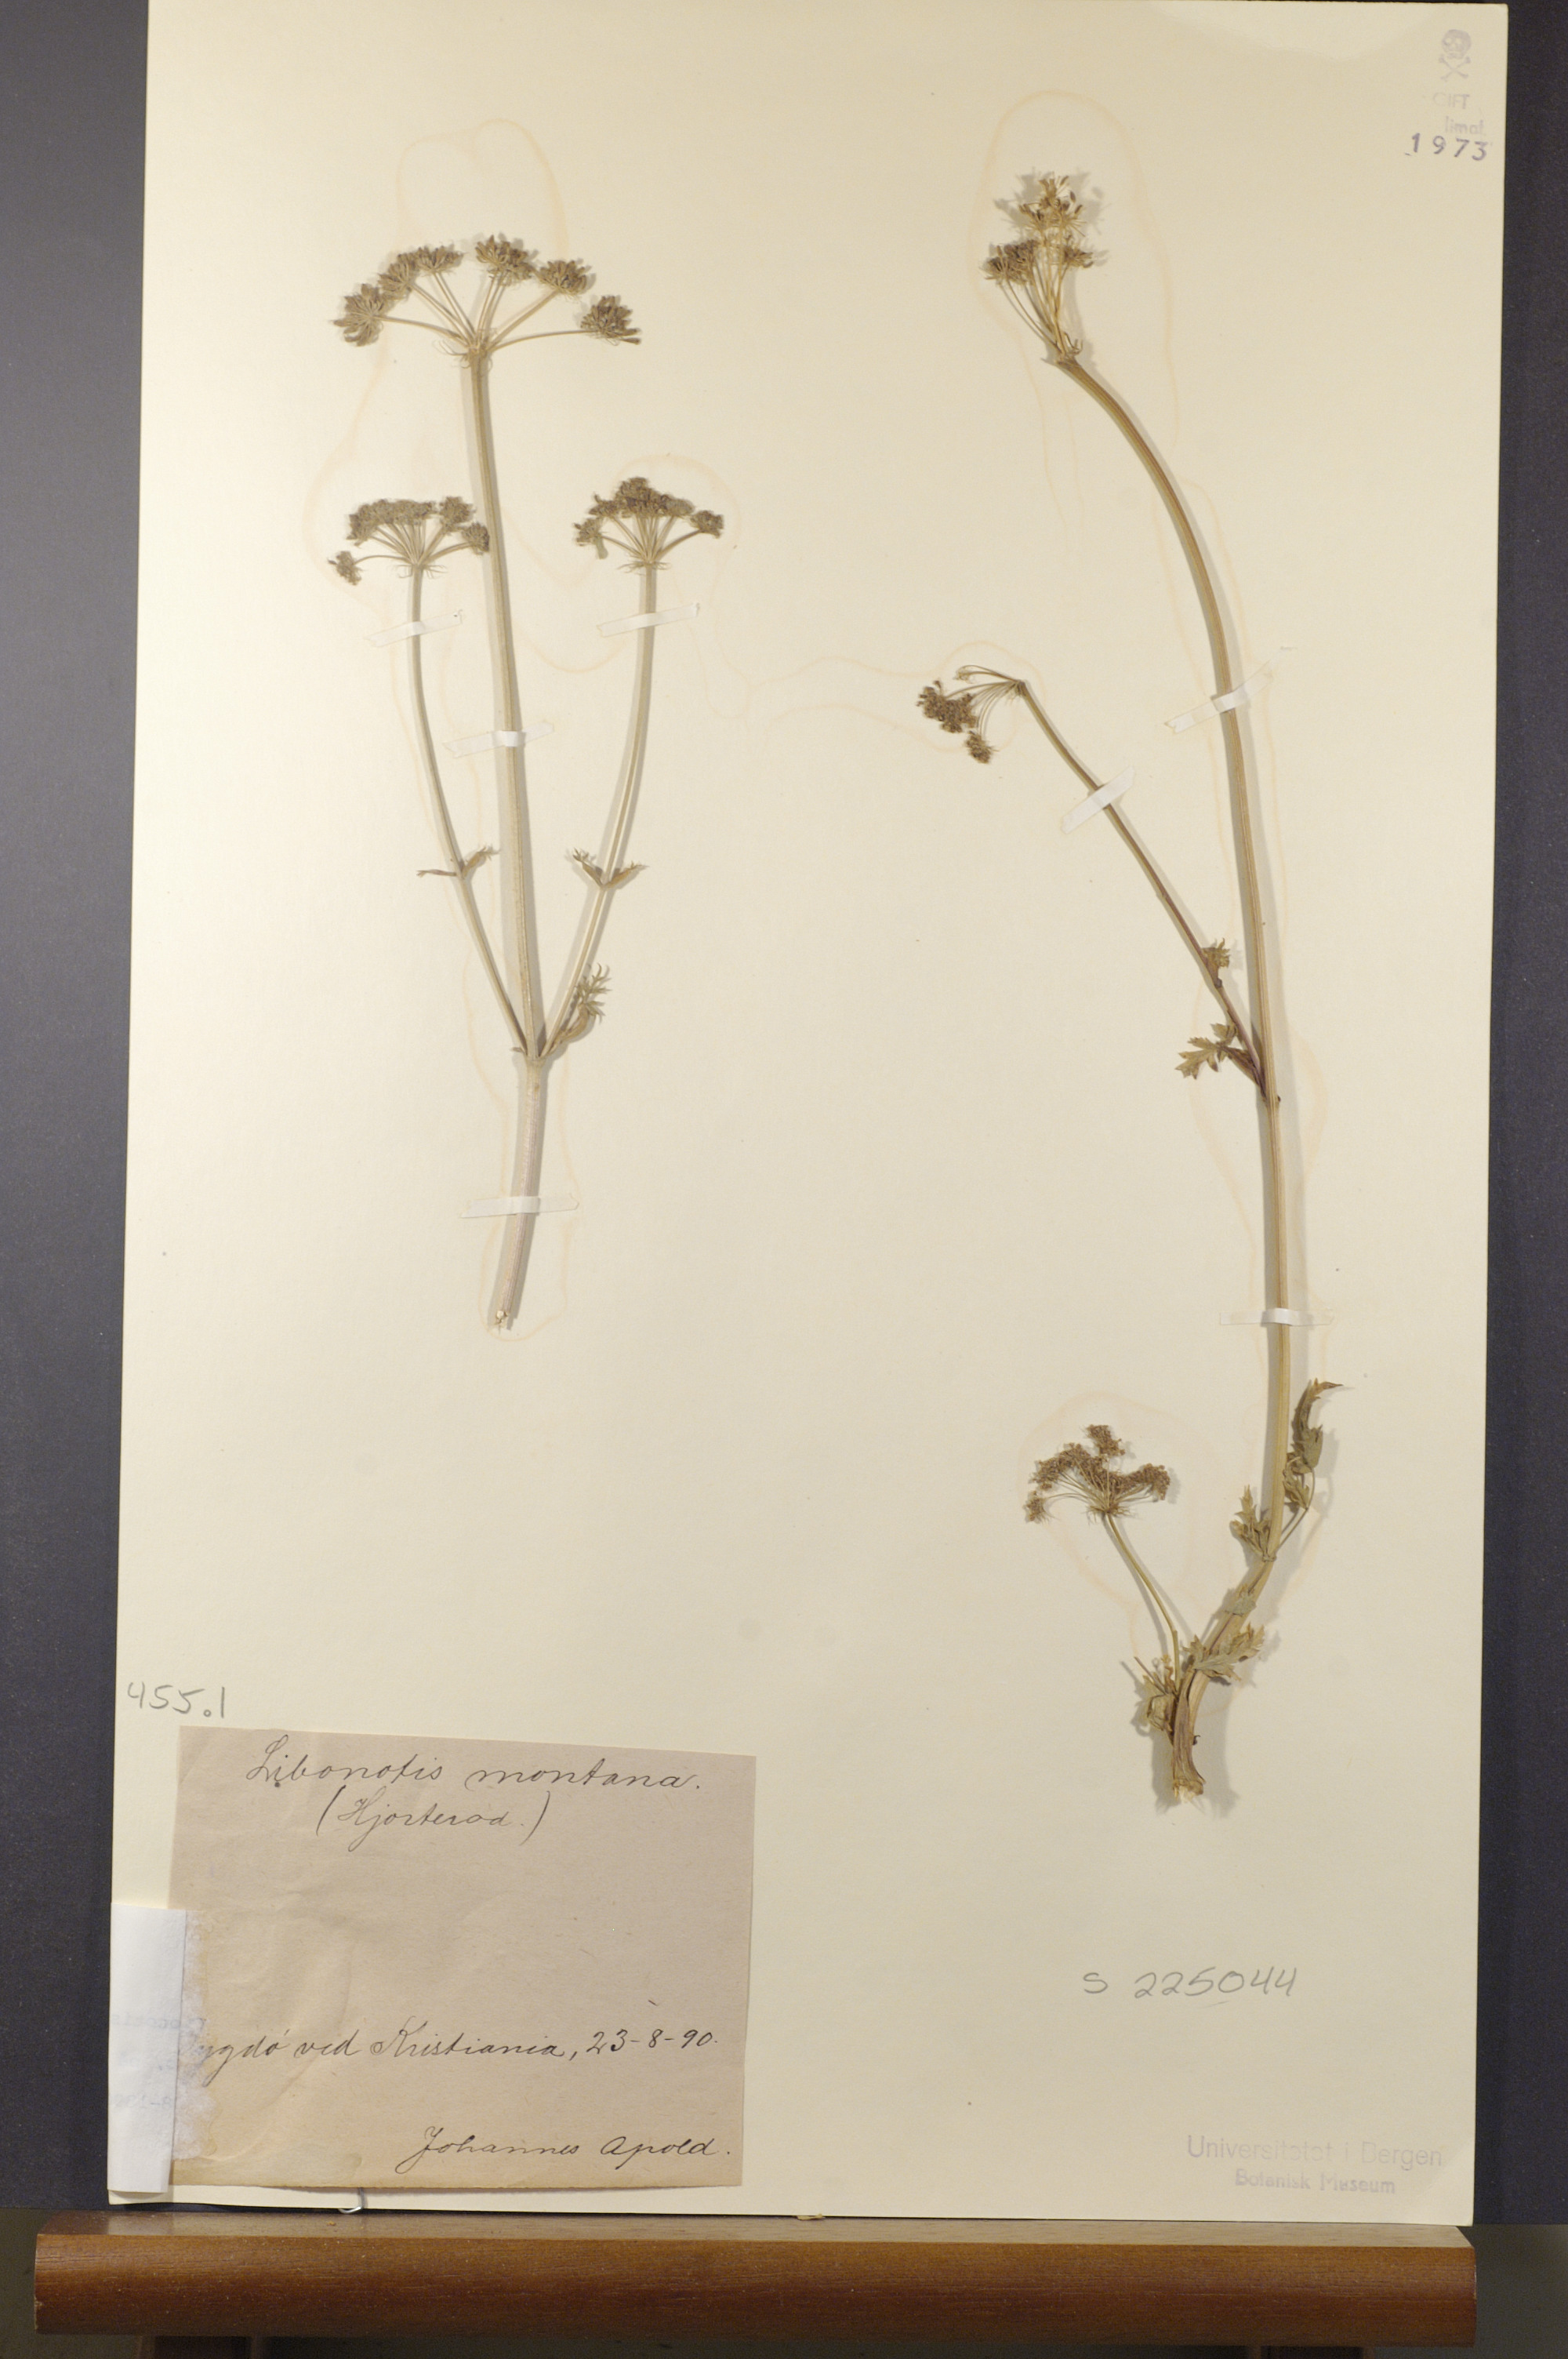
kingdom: Plantae
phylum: Tracheophyta
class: Magnoliopsida
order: Apiales
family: Apiaceae
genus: Seseli
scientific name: Seseli libanotis
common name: Mooncarrot
